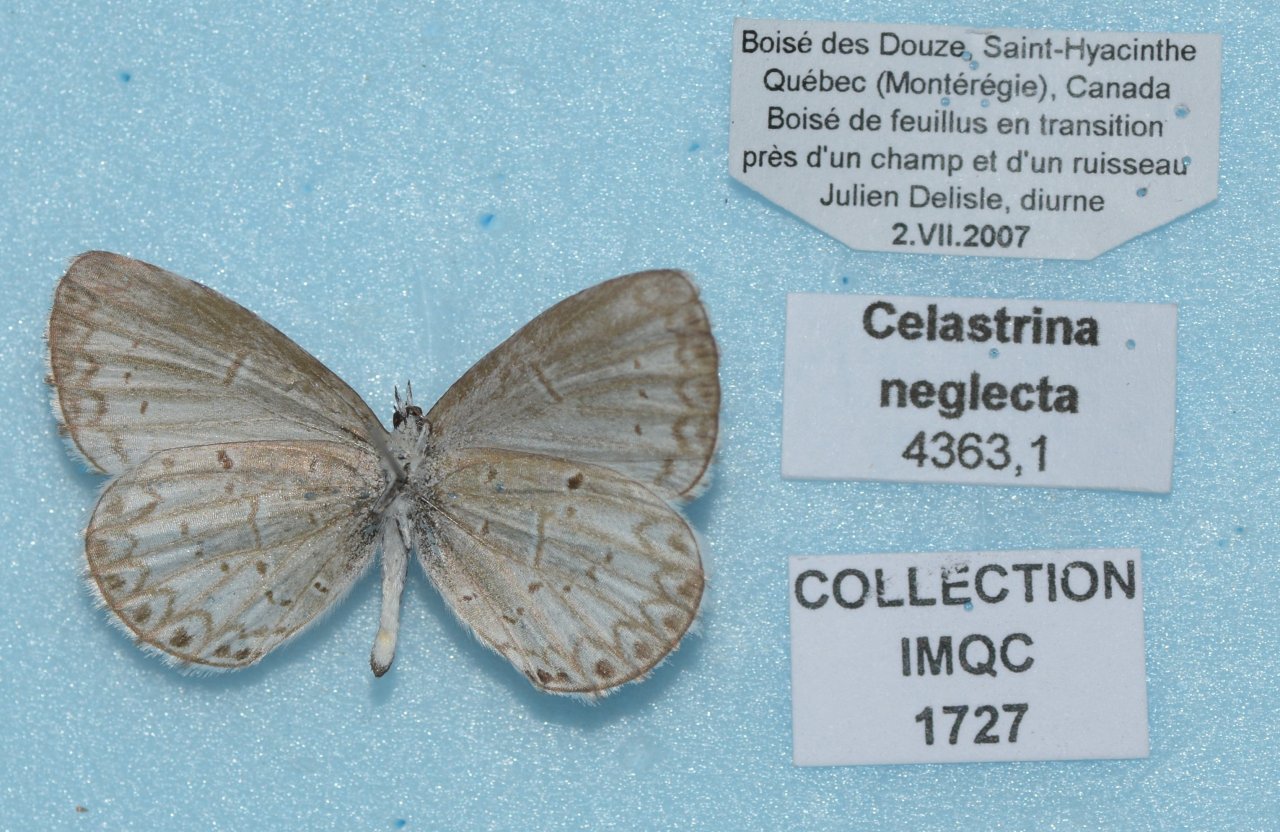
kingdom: Animalia
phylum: Arthropoda
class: Insecta
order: Lepidoptera
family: Lycaenidae
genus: Celastrina
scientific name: Celastrina lucia
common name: Northern Spring Azure
